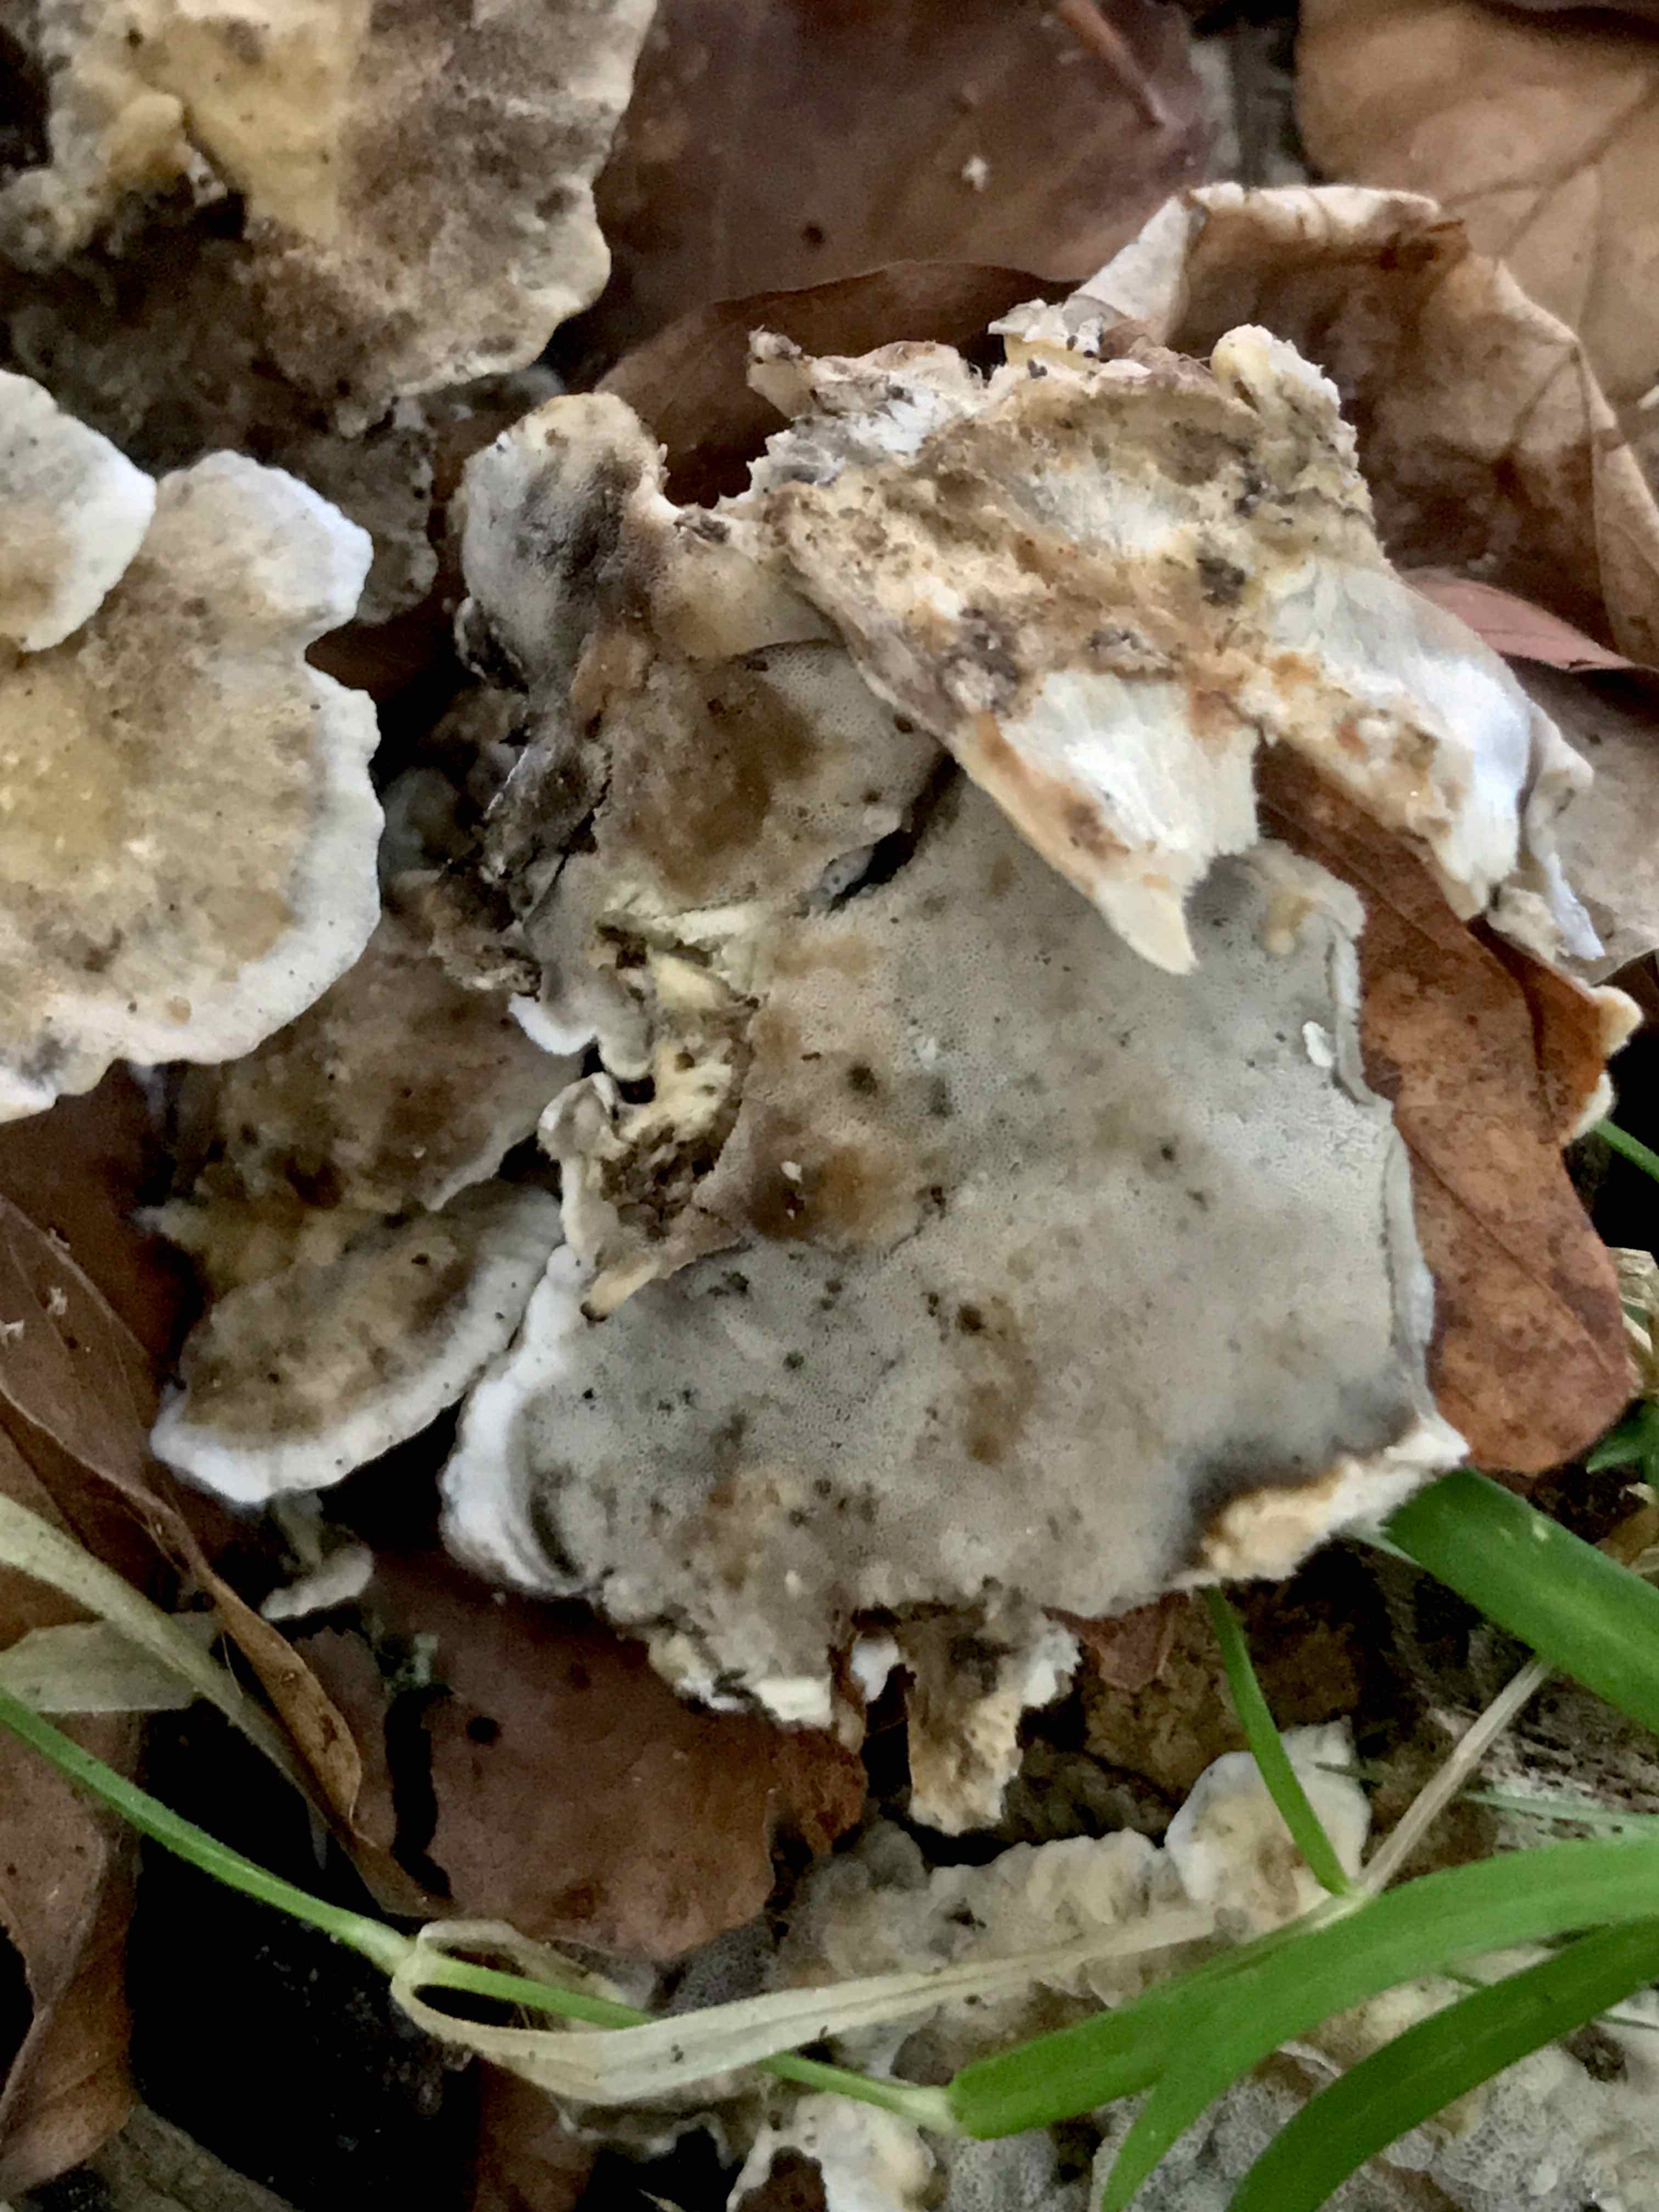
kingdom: Fungi
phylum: Basidiomycota
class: Agaricomycetes
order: Polyporales
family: Phanerochaetaceae
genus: Bjerkandera
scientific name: Bjerkandera adusta
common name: sveden sodporesvamp
